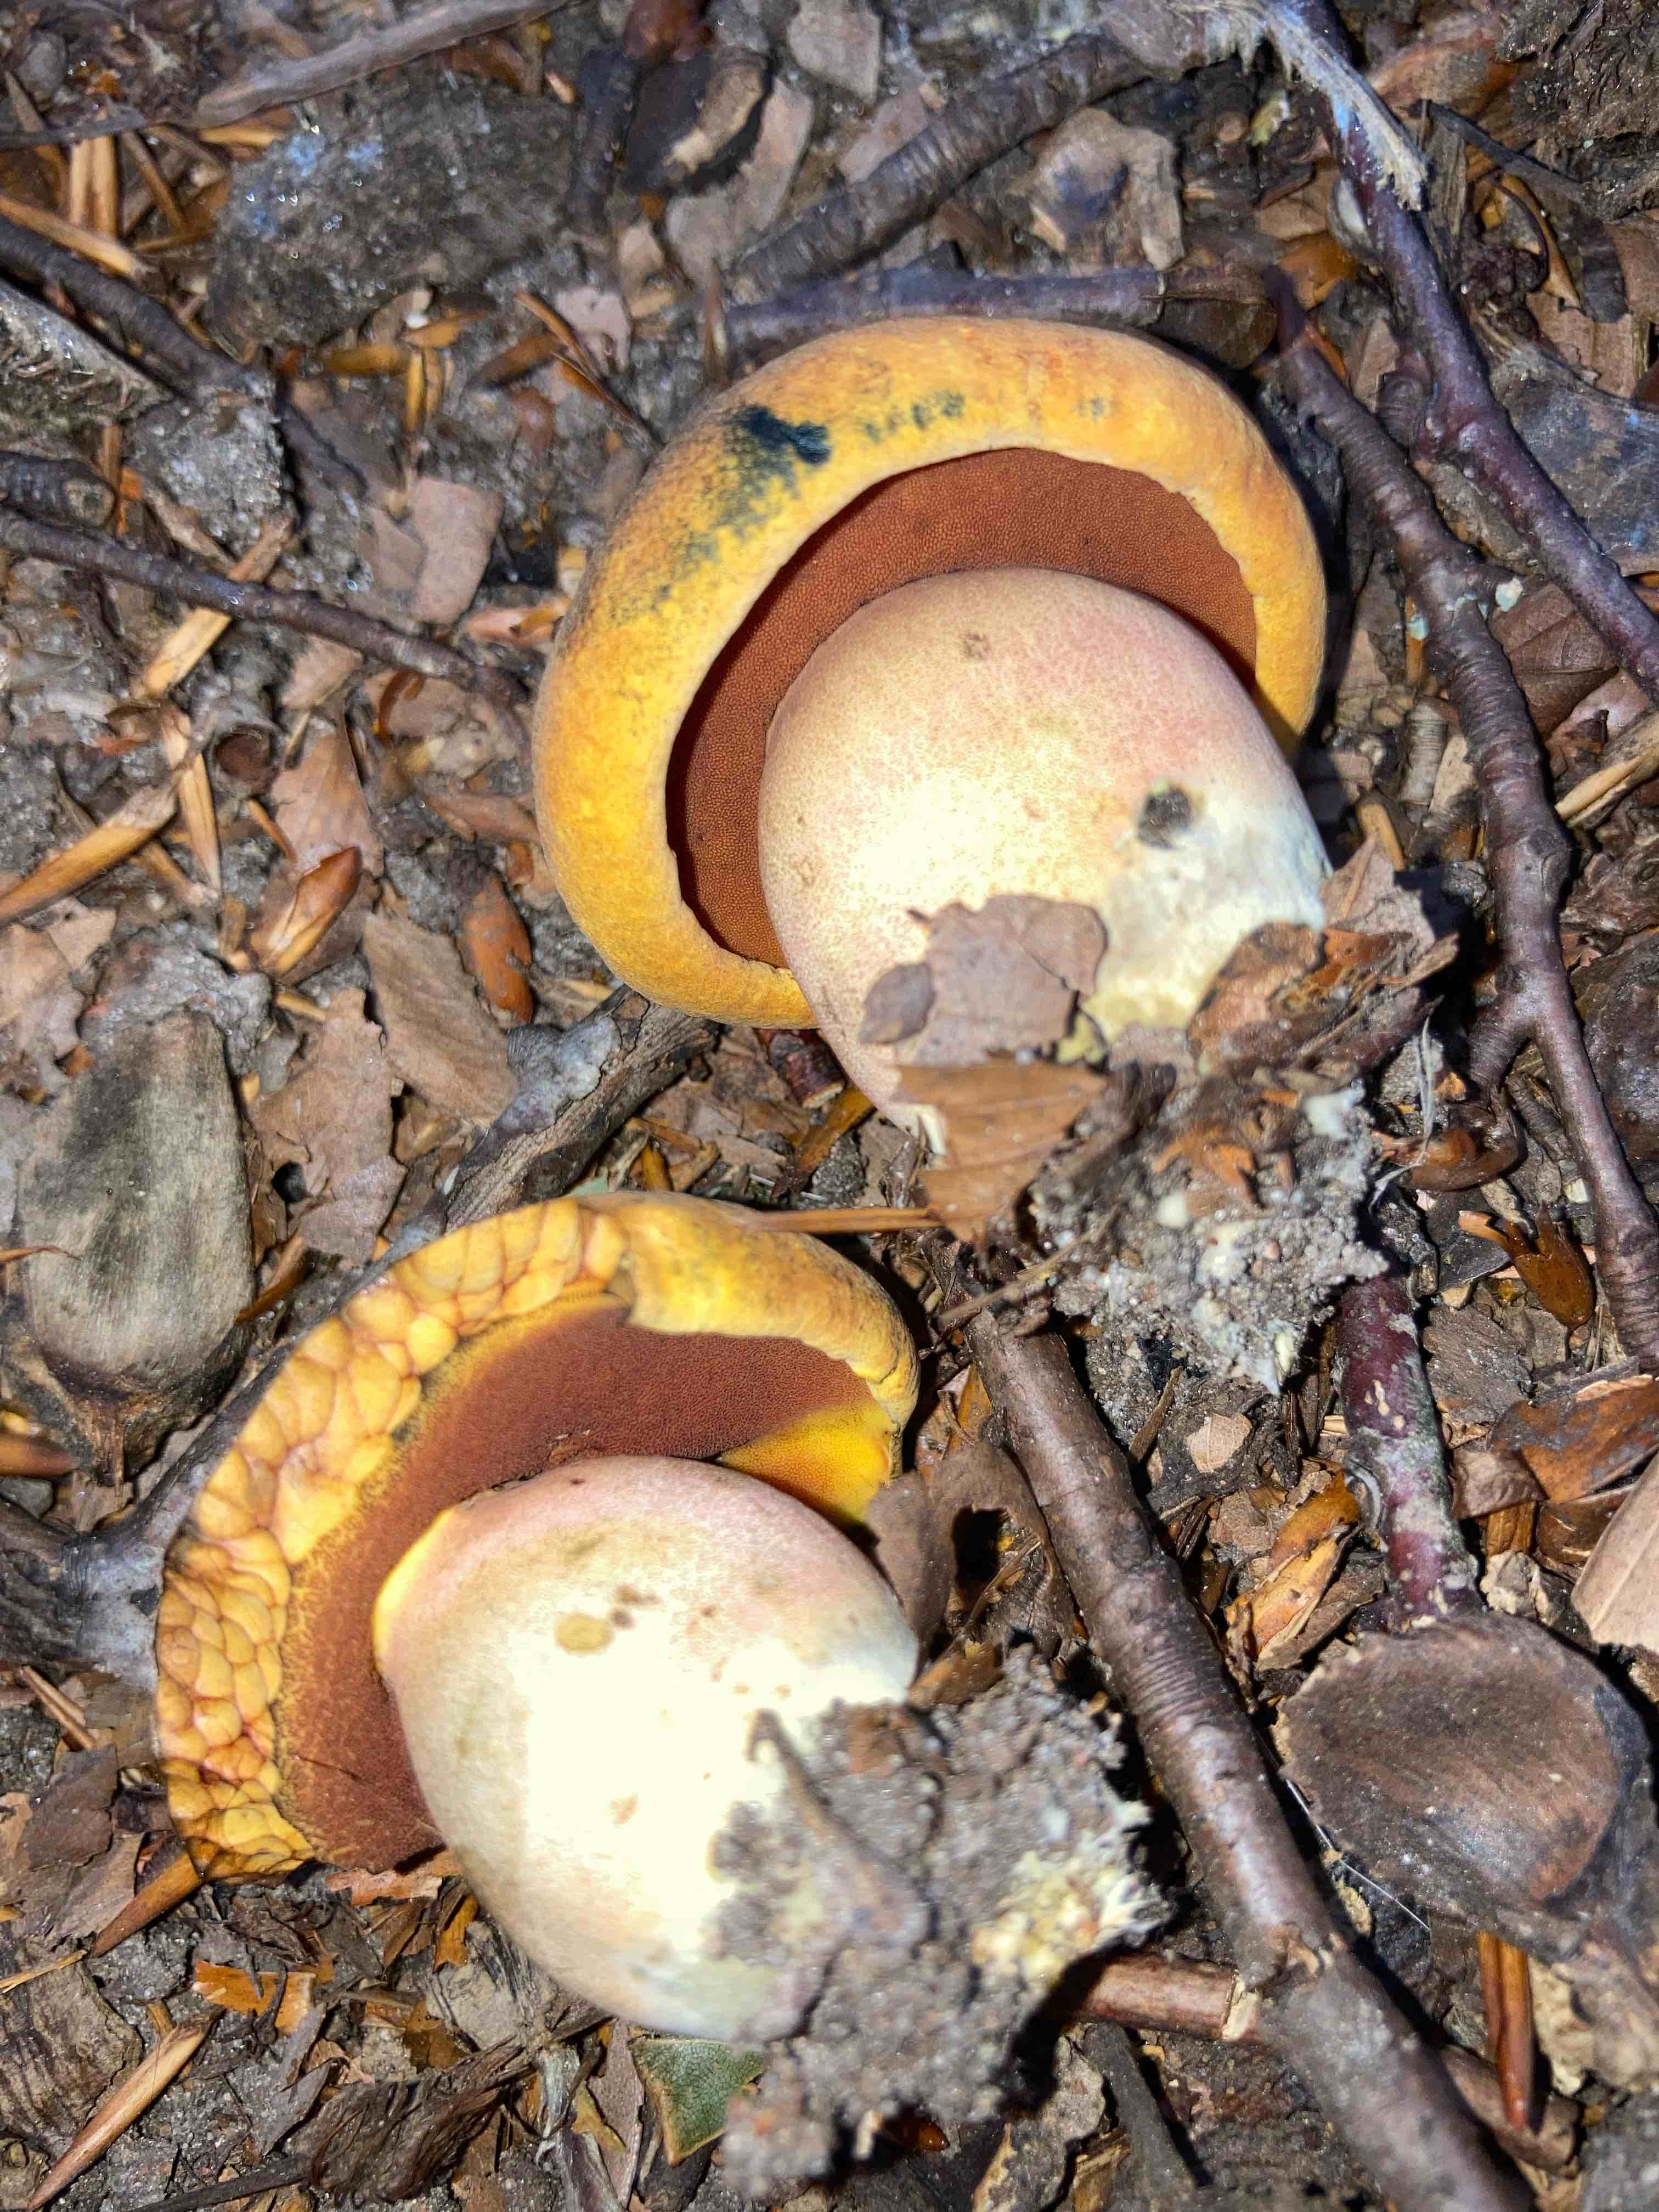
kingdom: Fungi
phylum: Basidiomycota
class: Agaricomycetes
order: Boletales
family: Boletaceae
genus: Neoboletus
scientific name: Neoboletus
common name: indigorørhat
